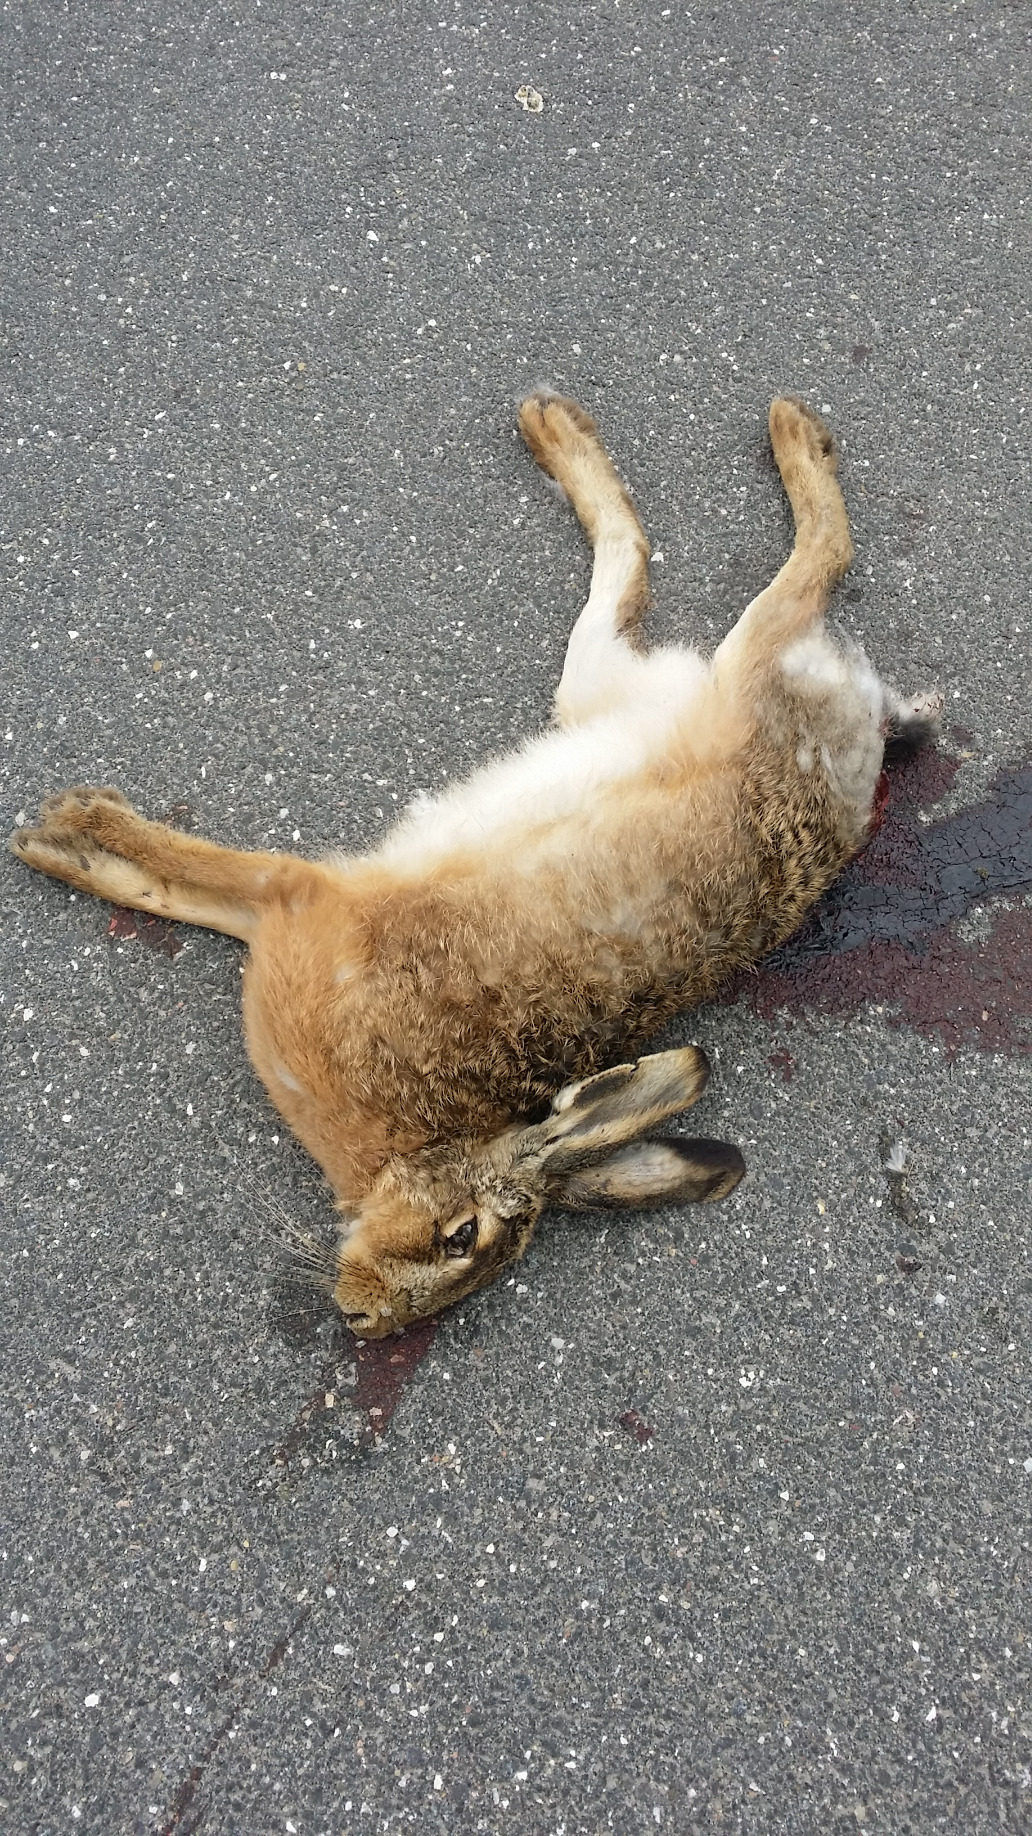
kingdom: Animalia
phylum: Chordata
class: Mammalia
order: Lagomorpha
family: Leporidae
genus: Lepus
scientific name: Lepus europaeus
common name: Hare
